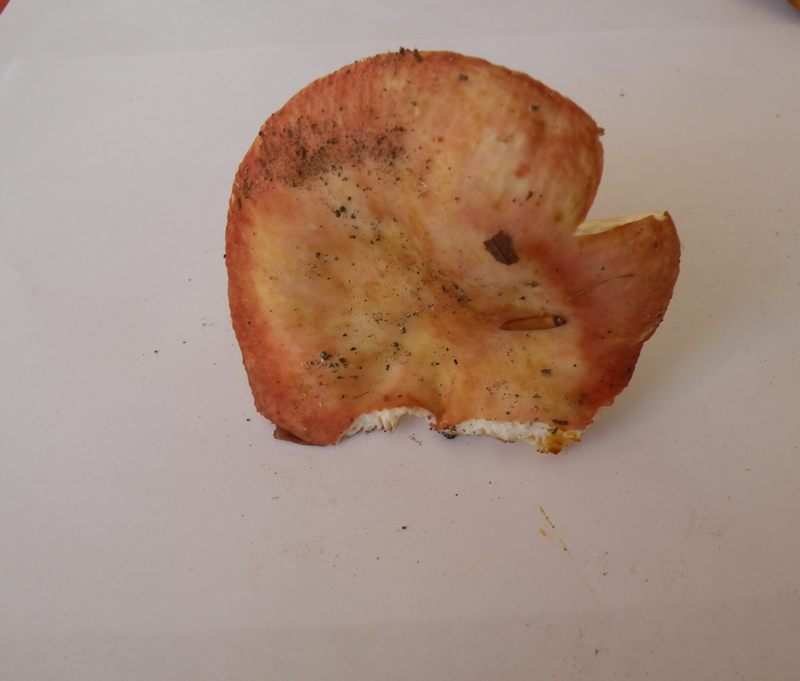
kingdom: Fungi
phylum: Basidiomycota
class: Agaricomycetes
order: Russulales
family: Russulaceae
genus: Russula
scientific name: Russula laeta
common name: orangerosa skørhat
